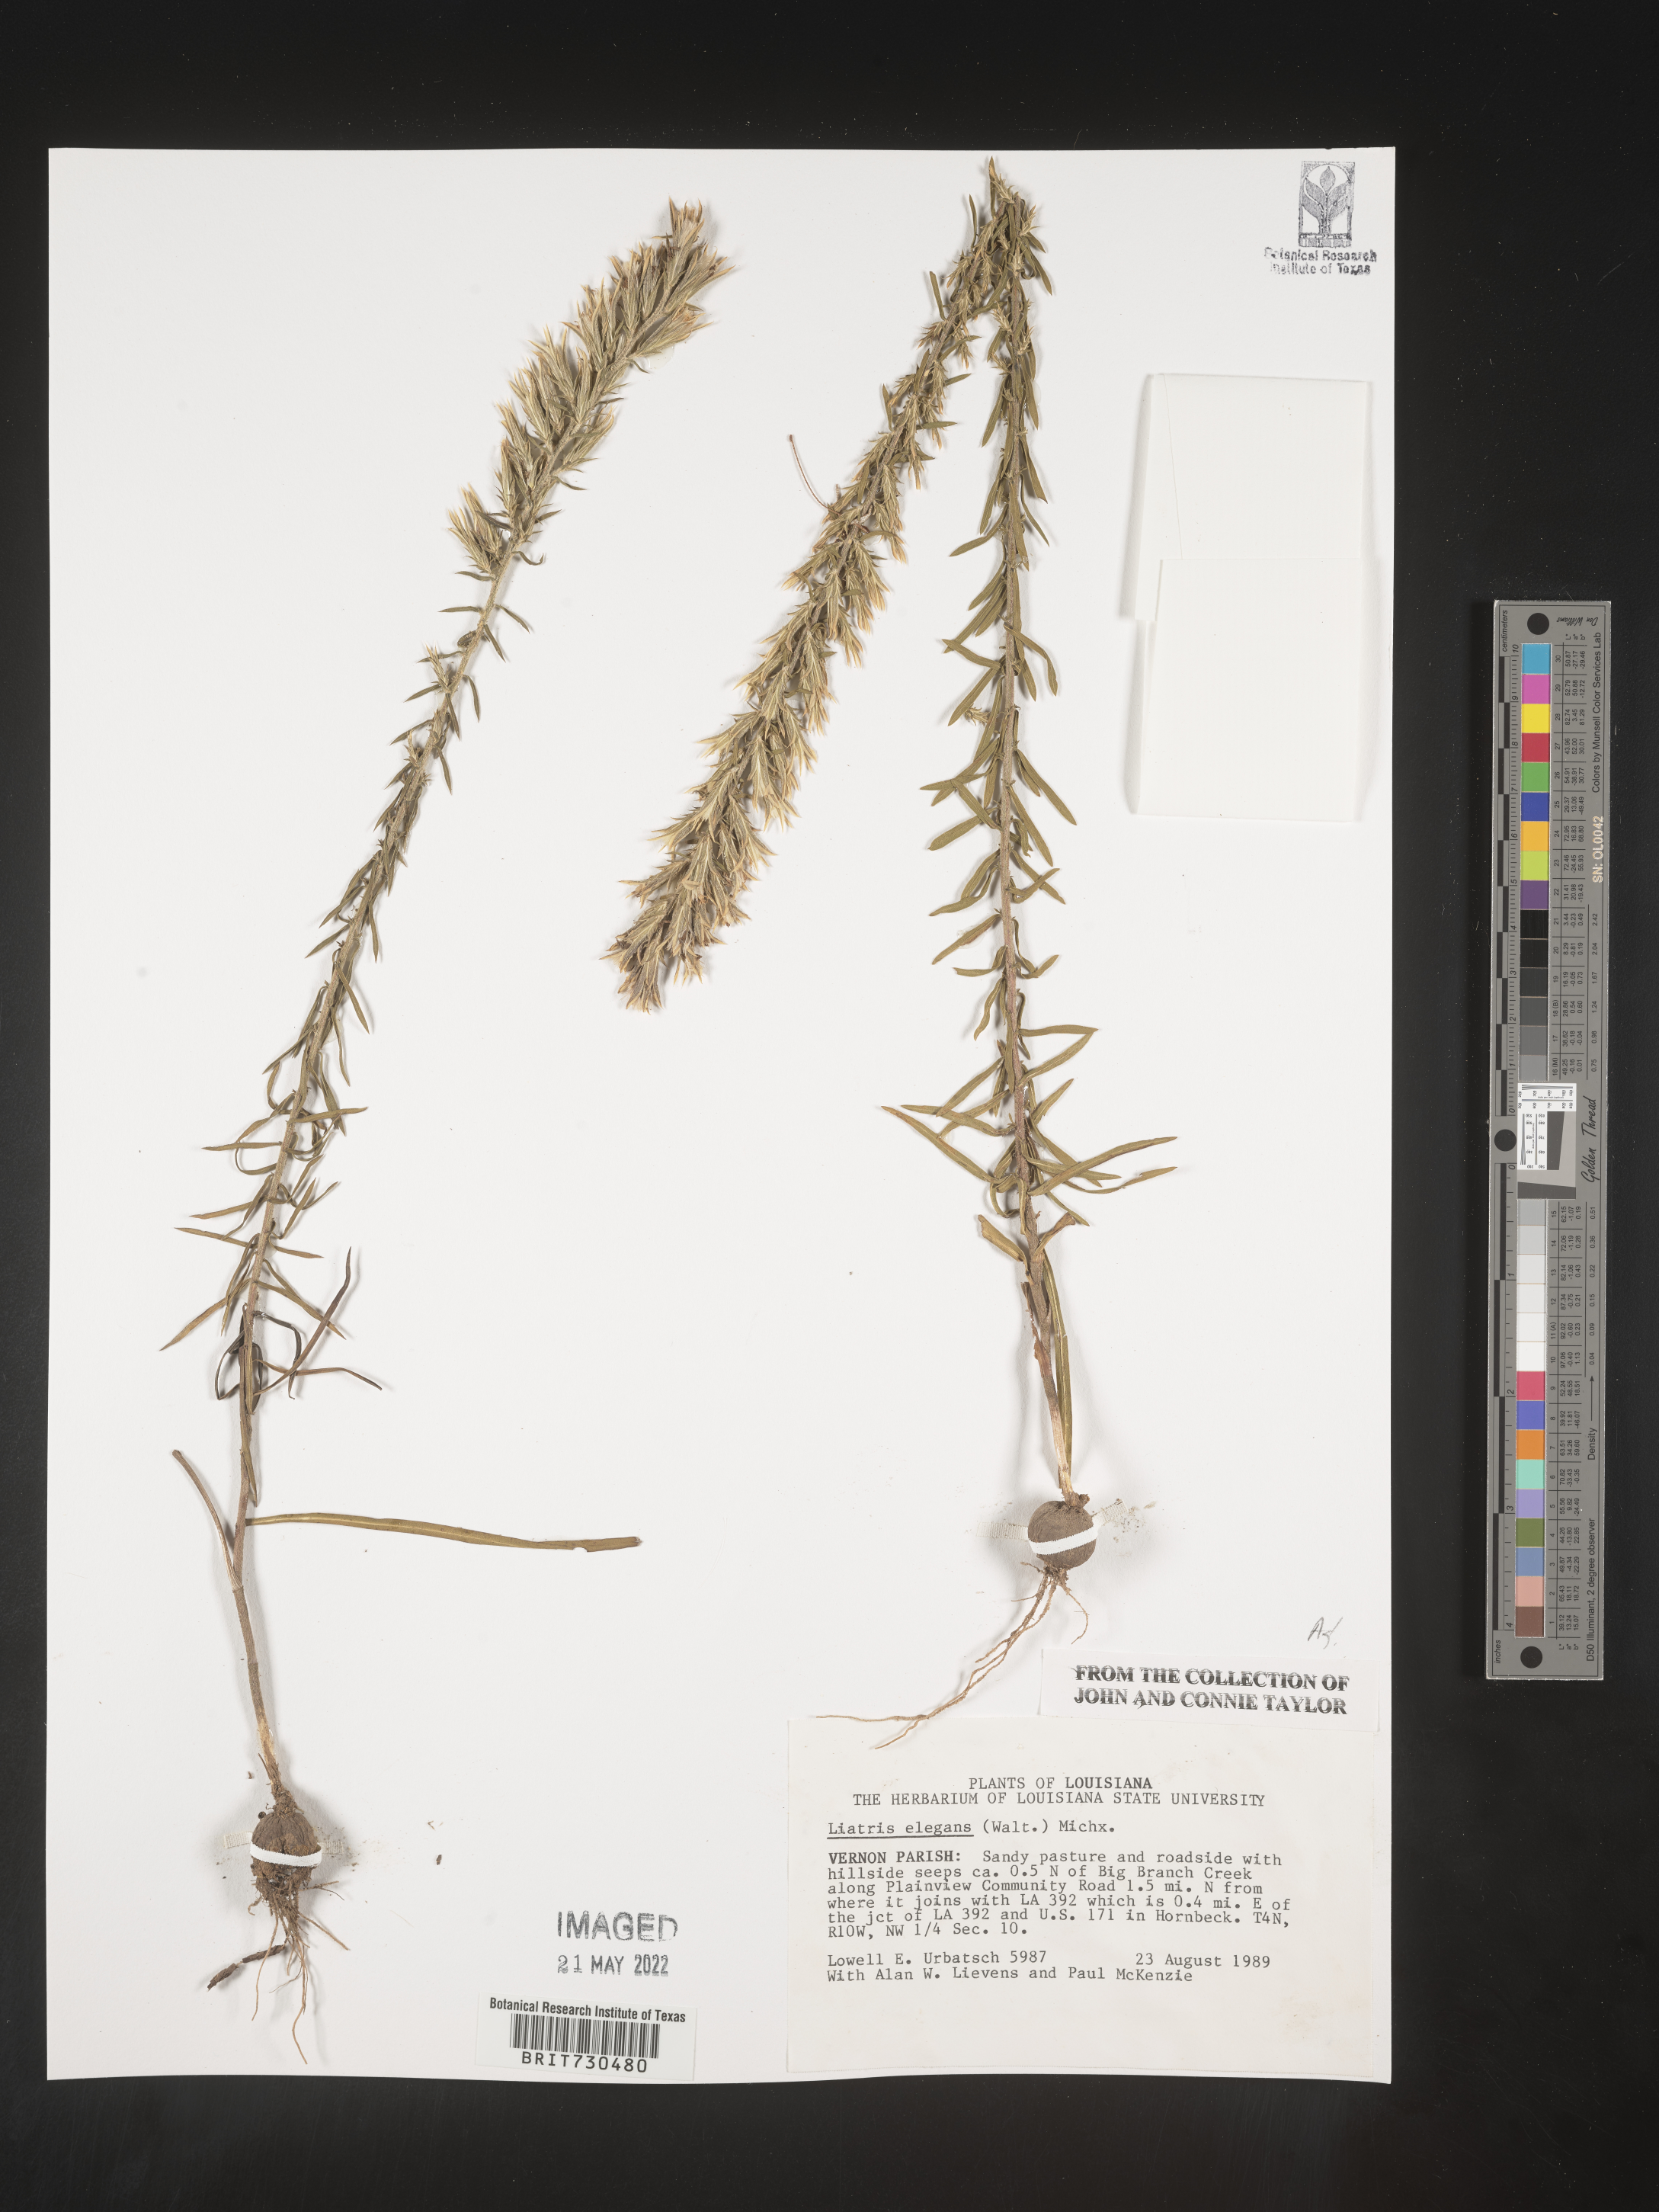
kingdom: Plantae
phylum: Tracheophyta
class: Magnoliopsida
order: Asterales
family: Asteraceae
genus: Liatris
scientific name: Liatris elegans
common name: Pinkscale gayfeather
